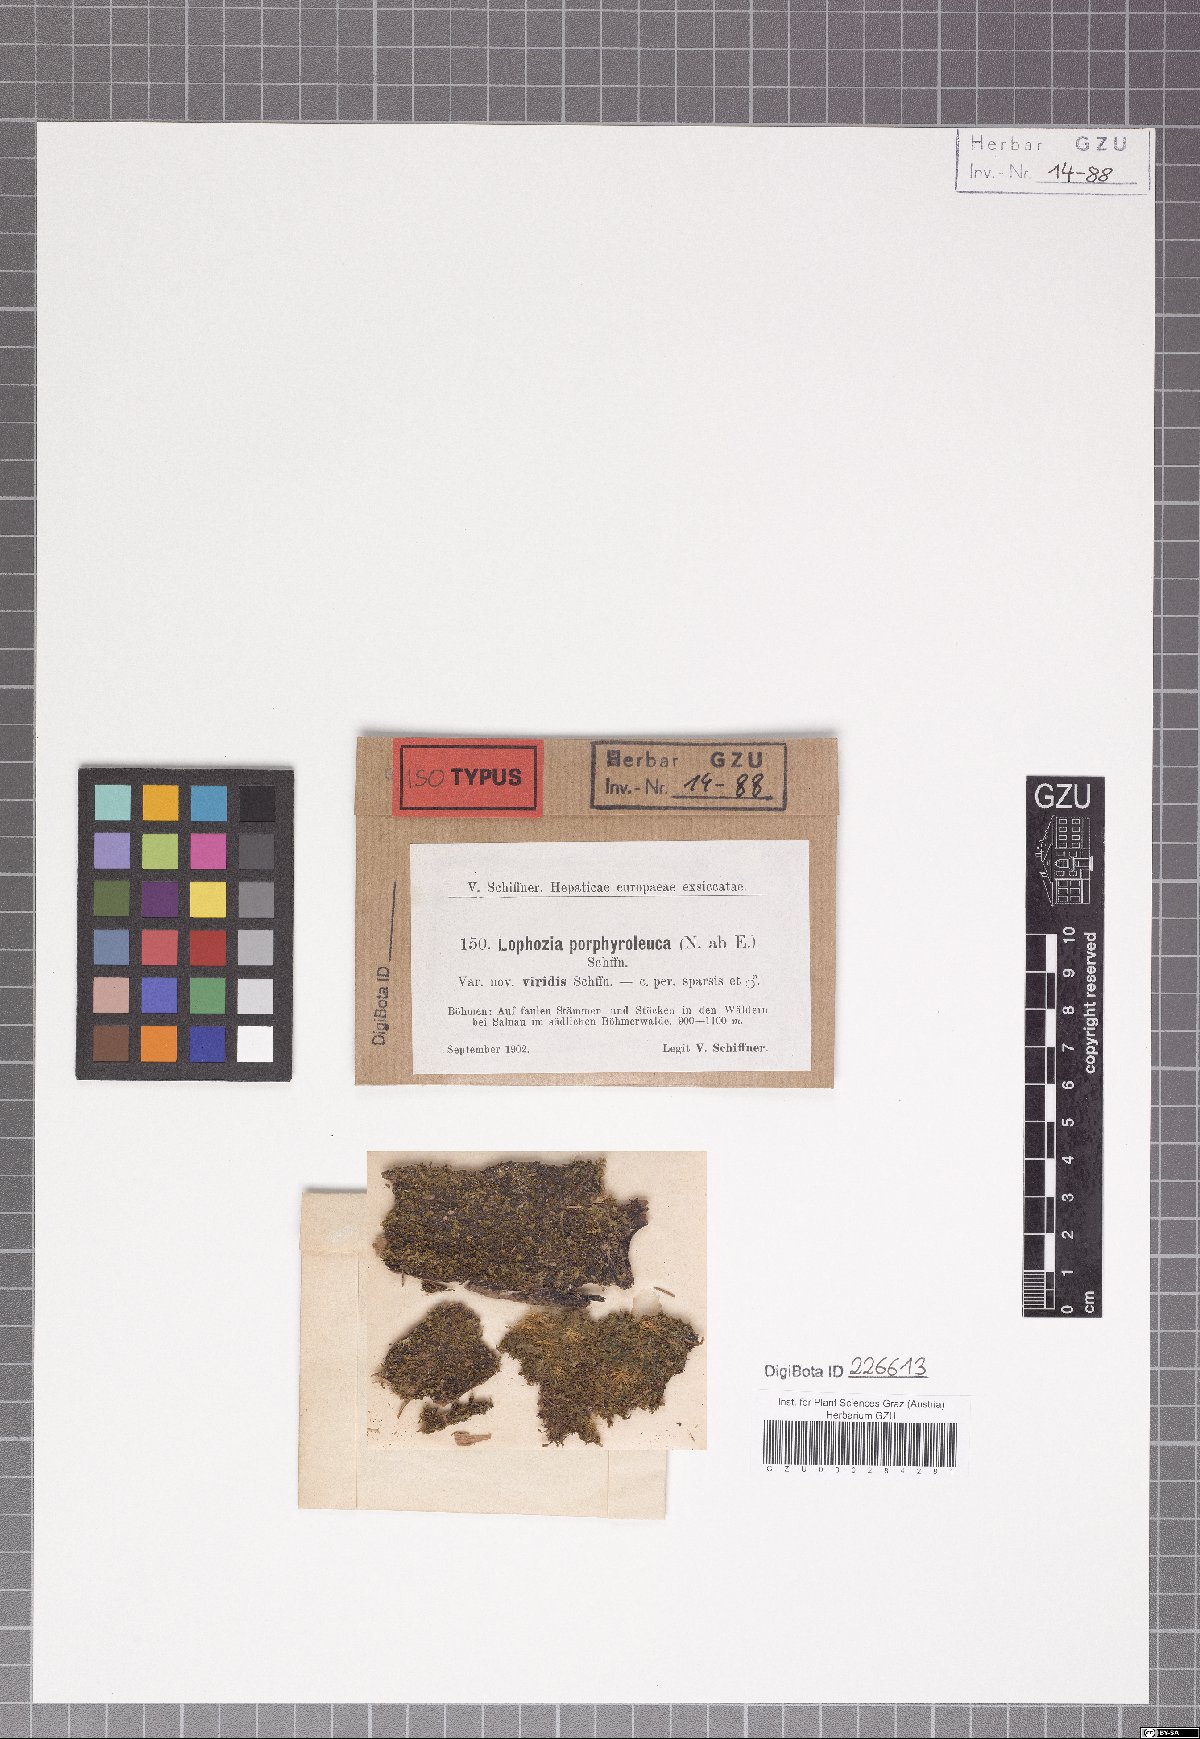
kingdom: Plantae
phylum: Marchantiophyta
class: Jungermanniopsida
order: Jungermanniales
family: Lophoziaceae
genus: Lophozia
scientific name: Lophozia guttulata
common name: Droplet flapwort
